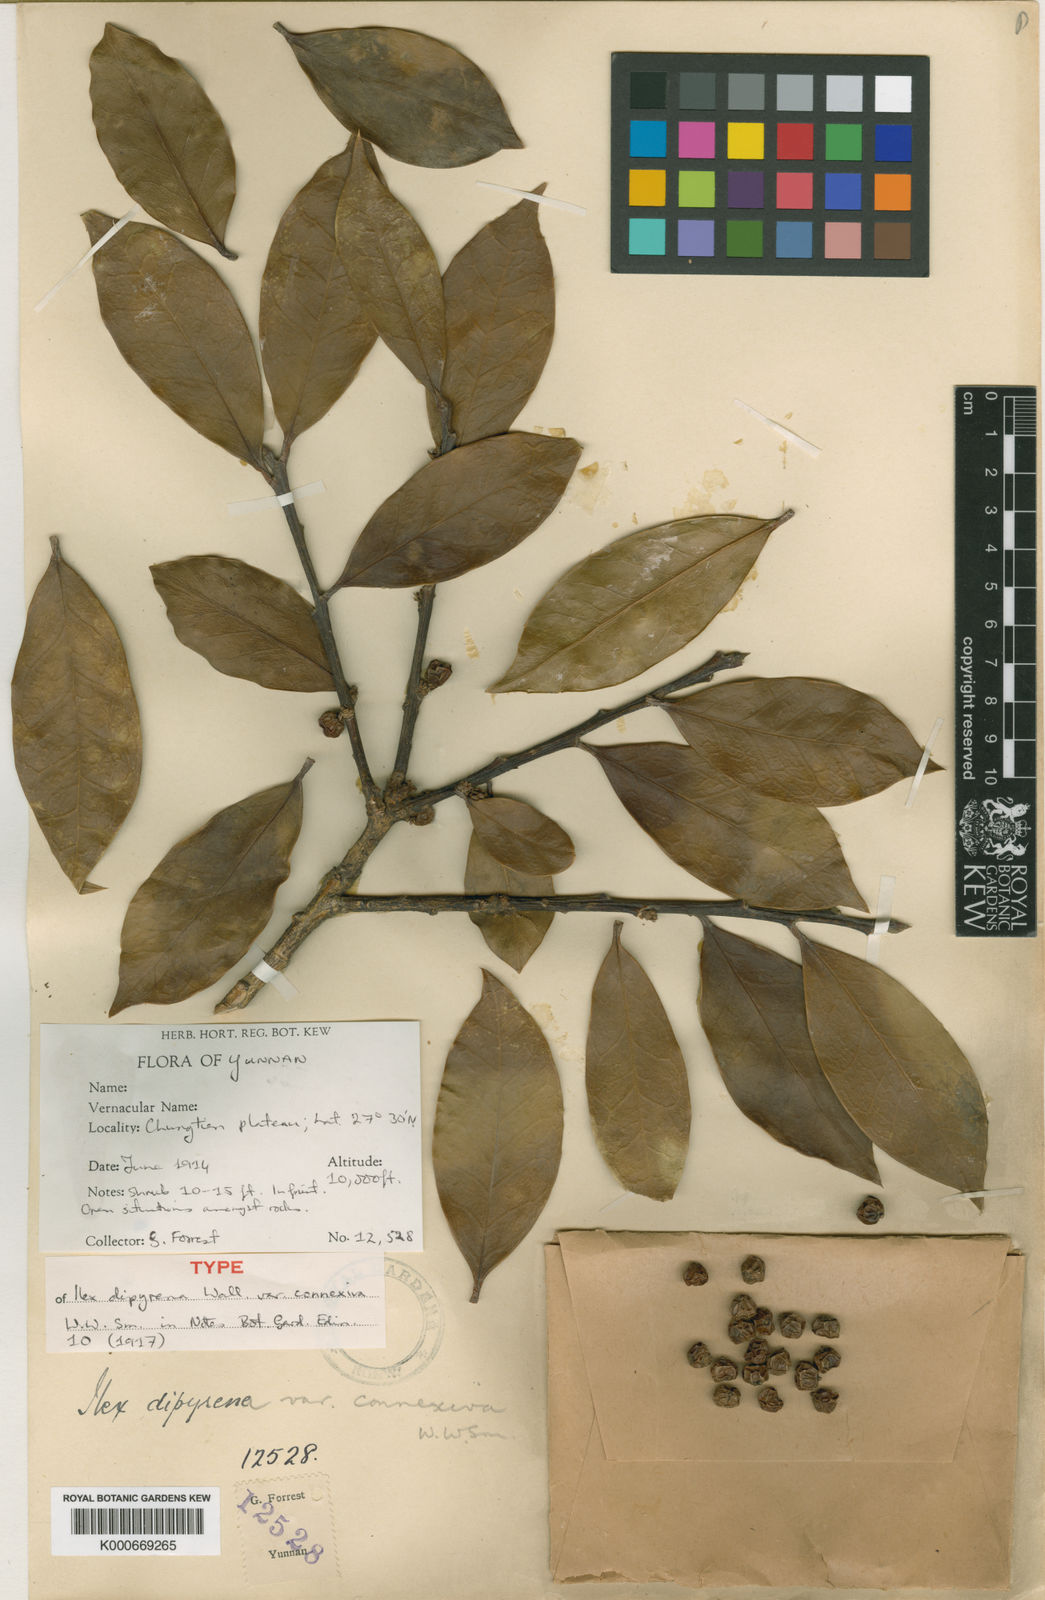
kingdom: Plantae
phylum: Tracheophyta
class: Magnoliopsida
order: Aquifoliales
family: Aquifoliaceae
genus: Ilex
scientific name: Ilex dipyrena
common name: Himalayan holly
